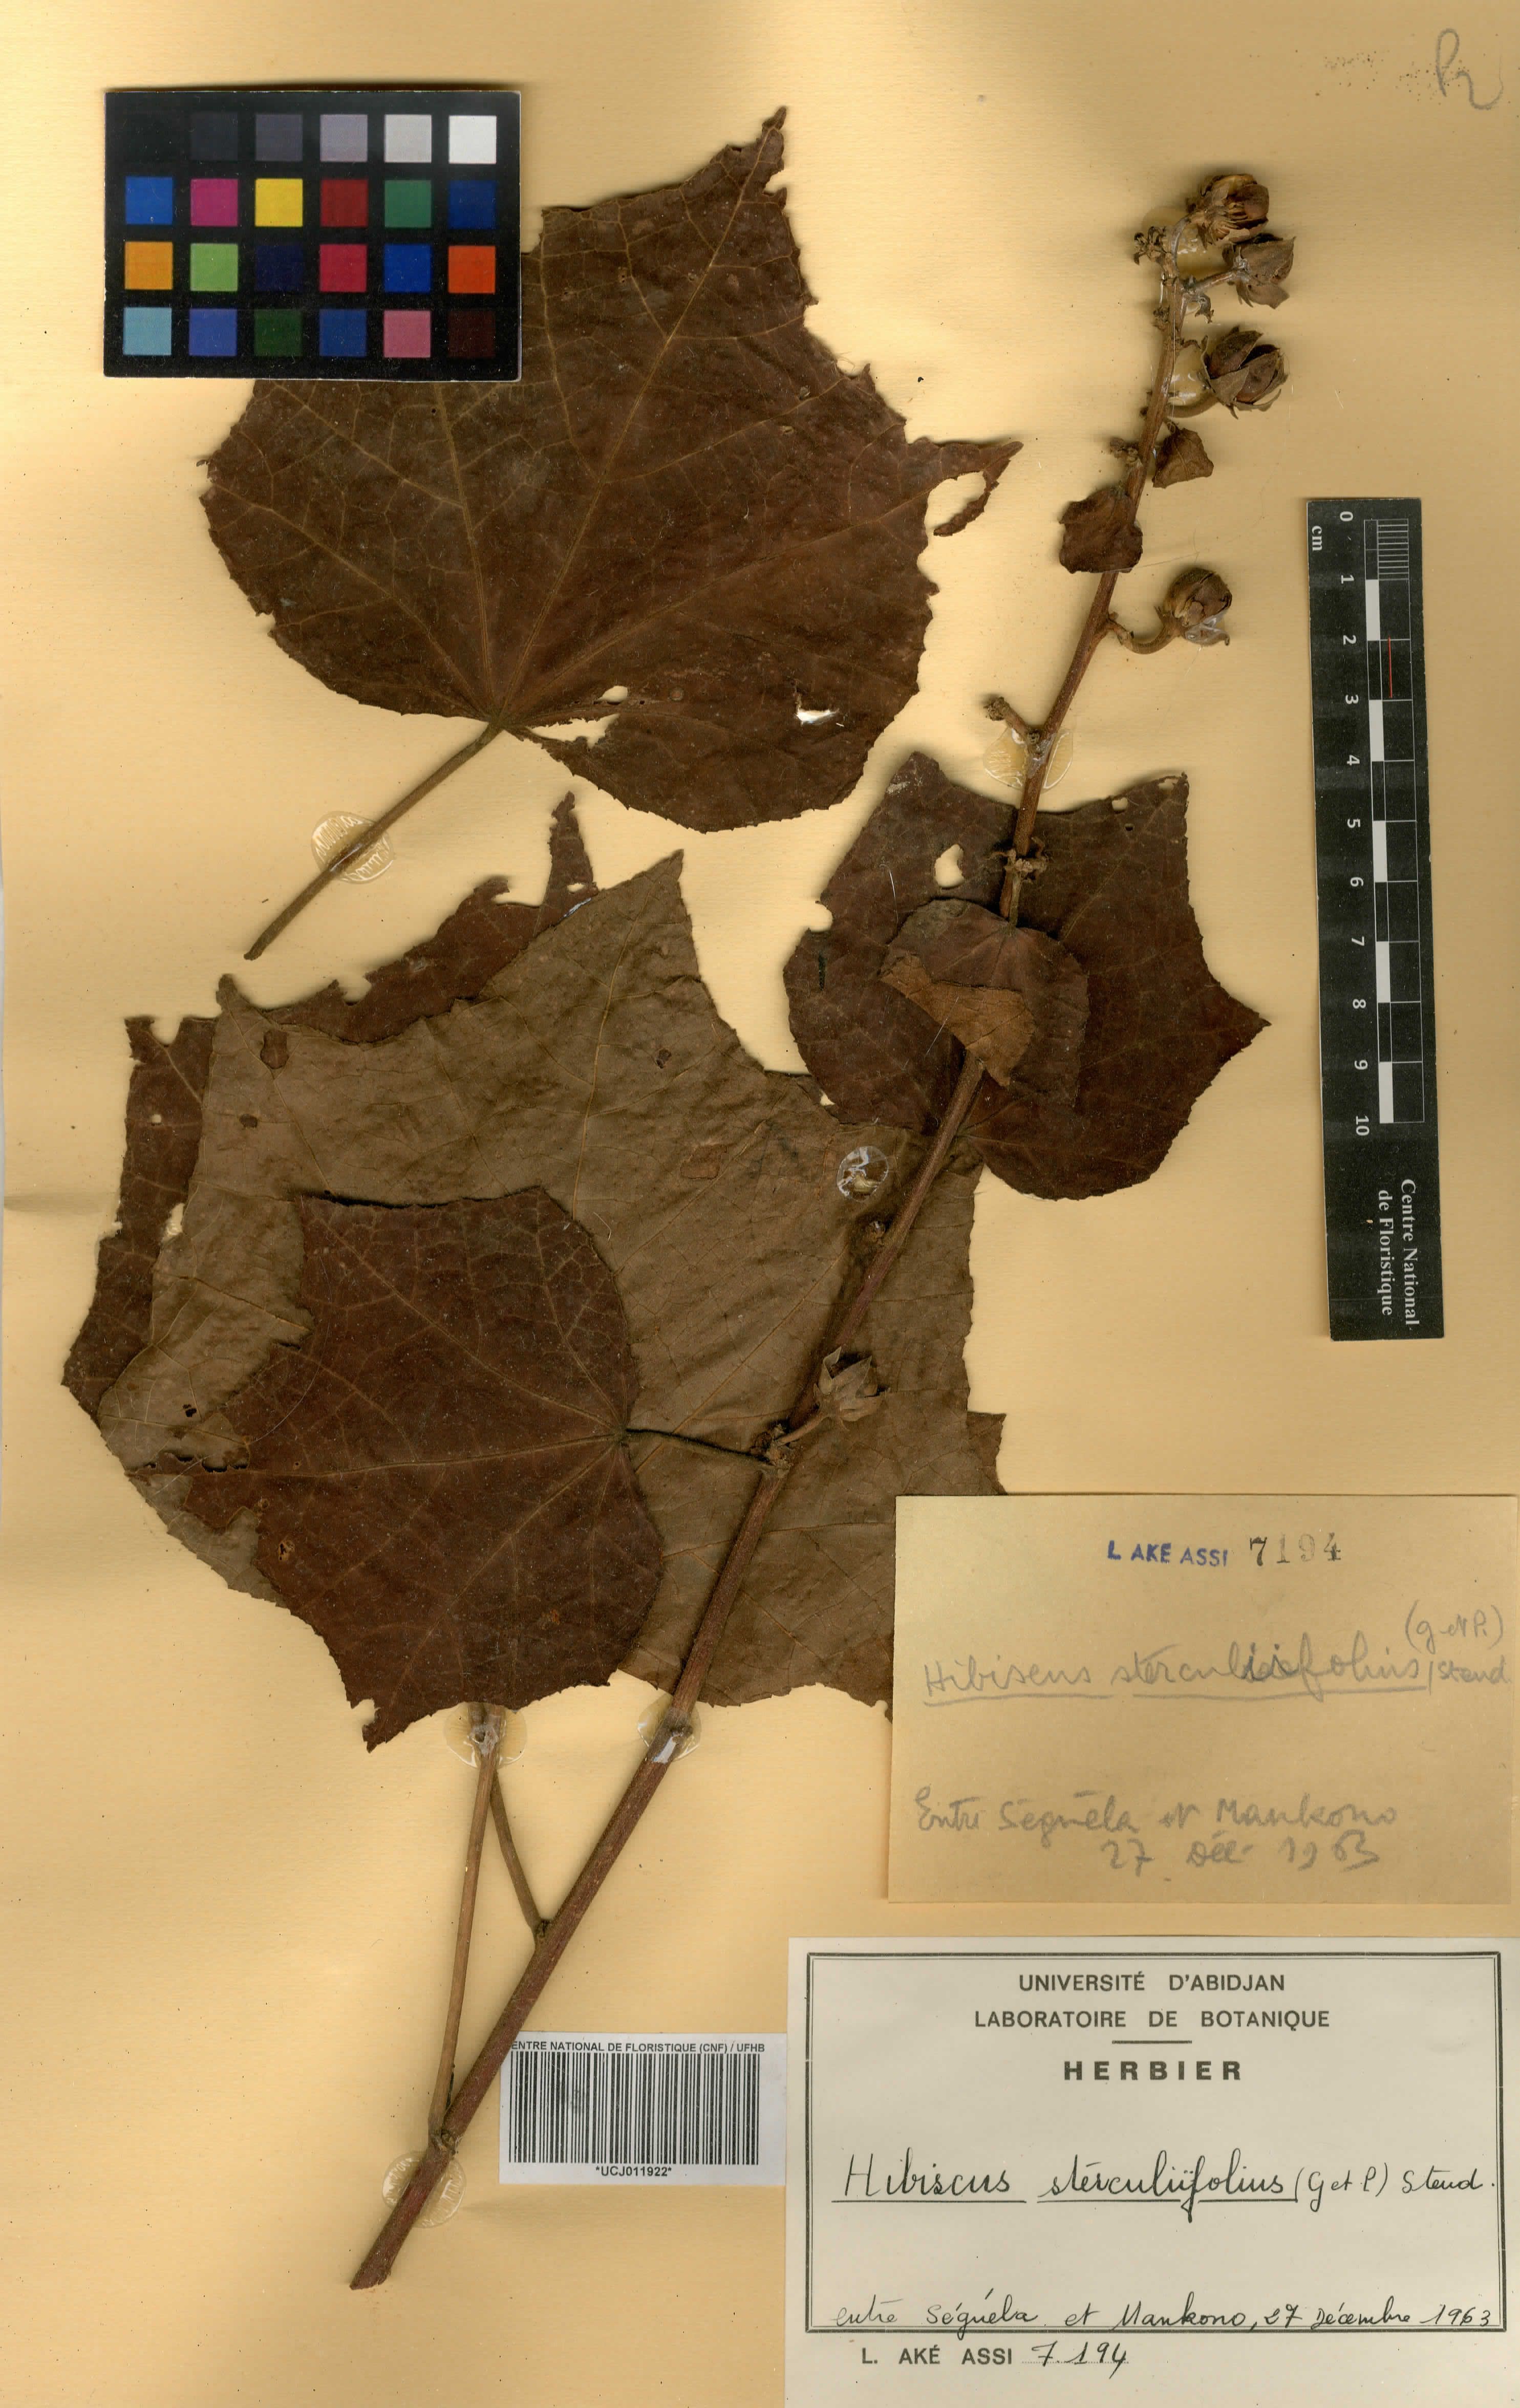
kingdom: Plantae
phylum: Tracheophyta
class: Magnoliopsida
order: Malvales
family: Malvaceae
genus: Hibiscus
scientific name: Hibiscus sterculiifolius
